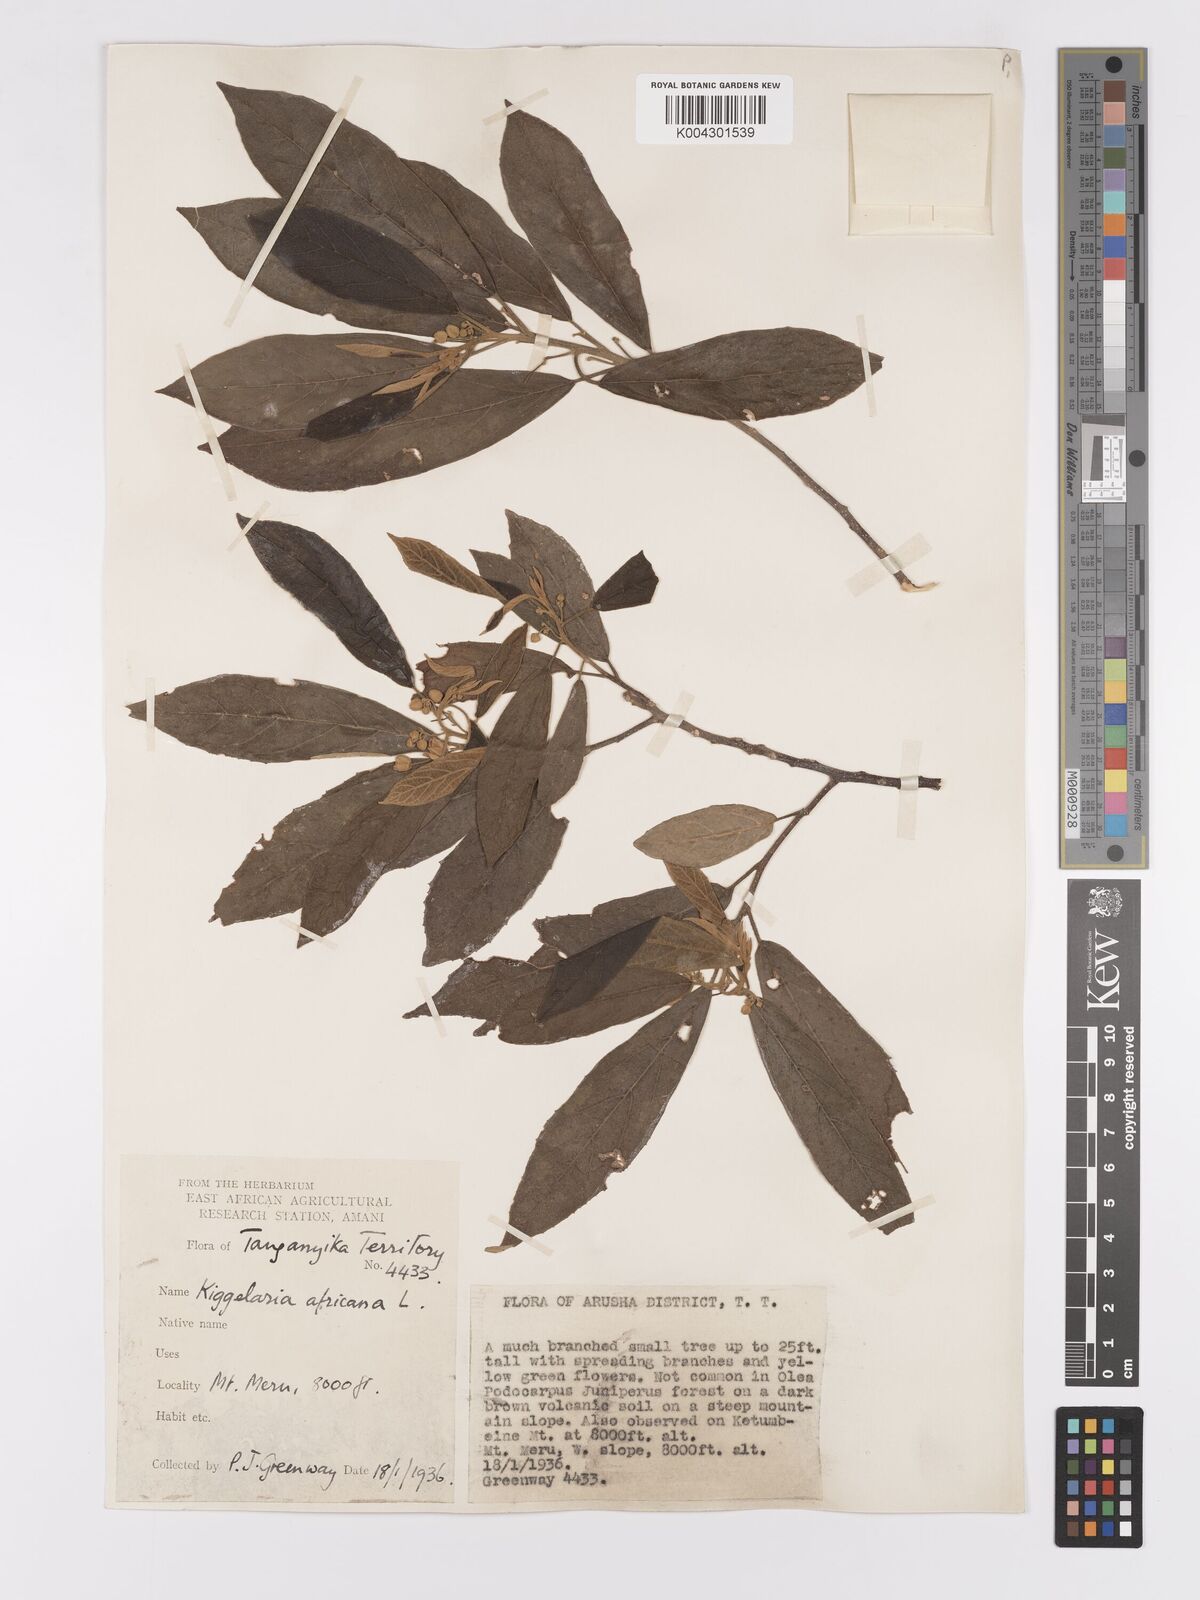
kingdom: Plantae
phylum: Tracheophyta
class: Magnoliopsida
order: Malpighiales
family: Achariaceae
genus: Kiggelaria
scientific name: Kiggelaria africana
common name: Wild peach
